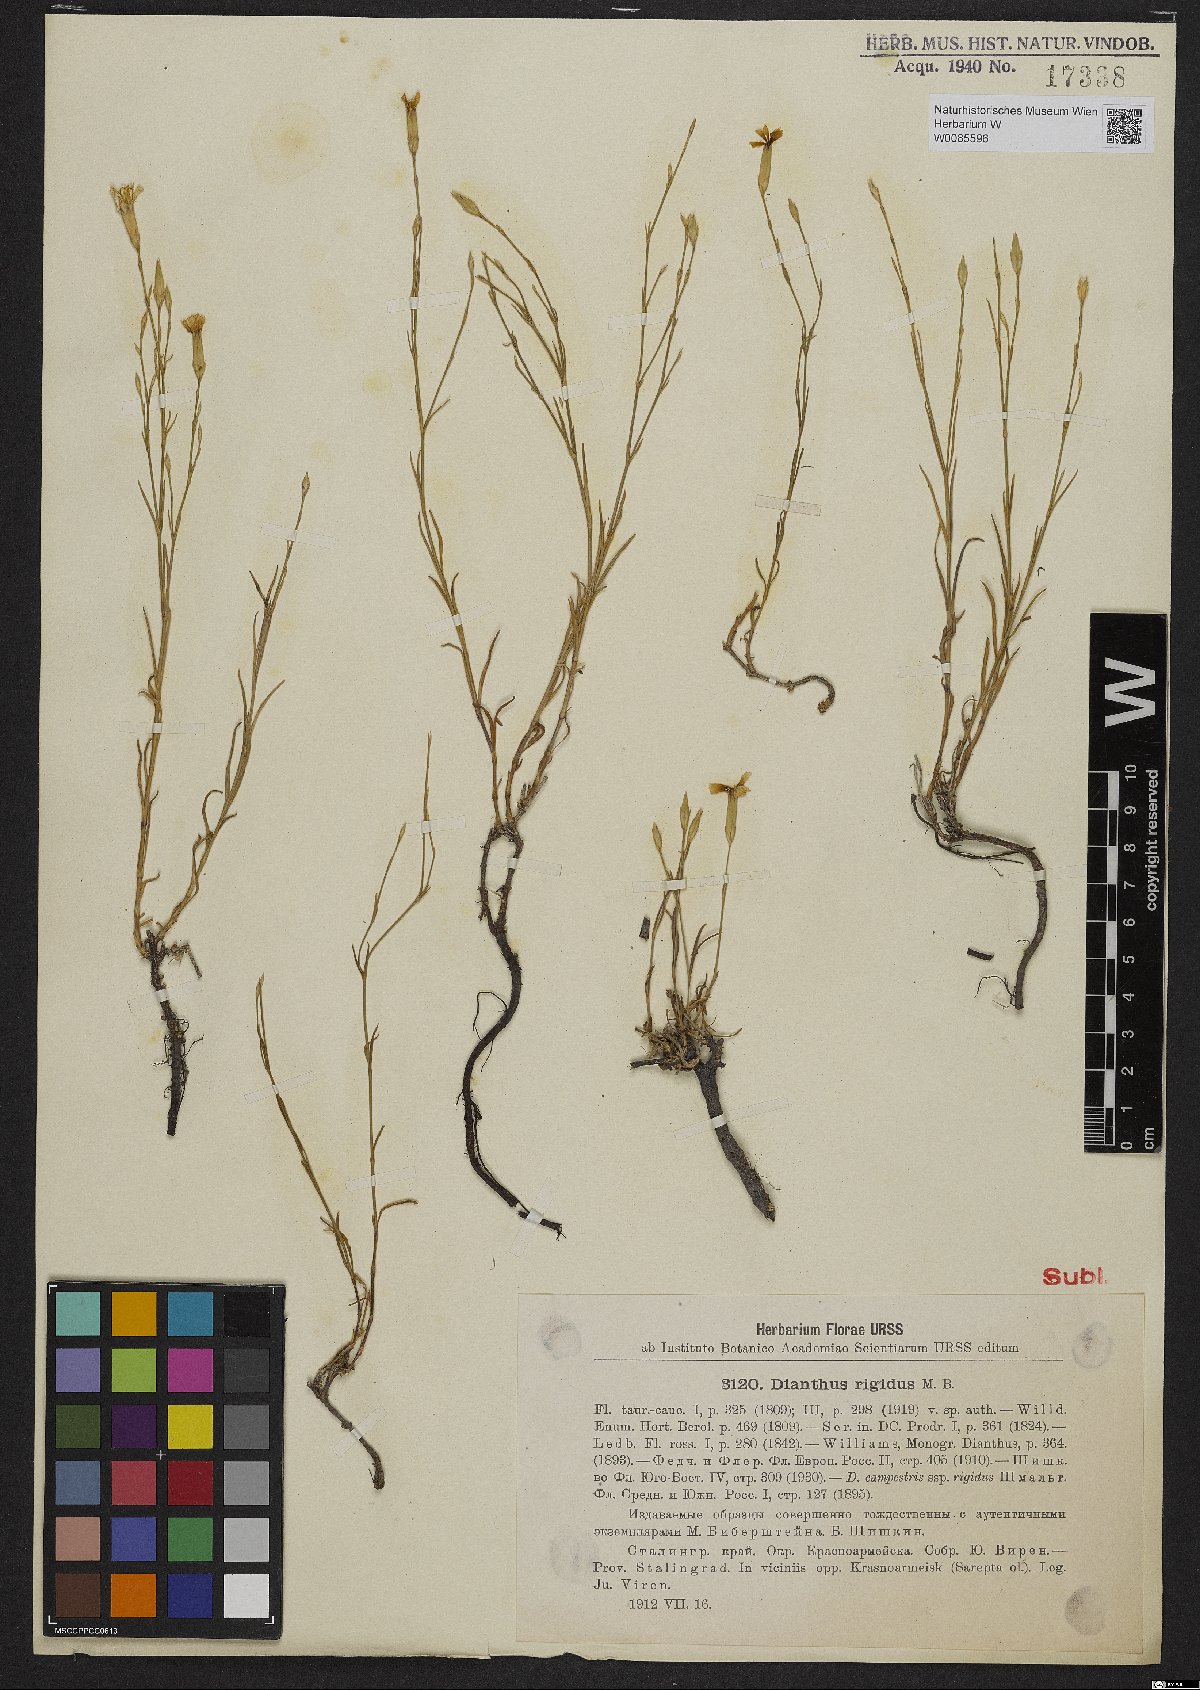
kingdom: Plantae
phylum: Tracheophyta
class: Magnoliopsida
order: Caryophyllales
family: Caryophyllaceae
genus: Dianthus
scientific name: Dianthus rigidus
